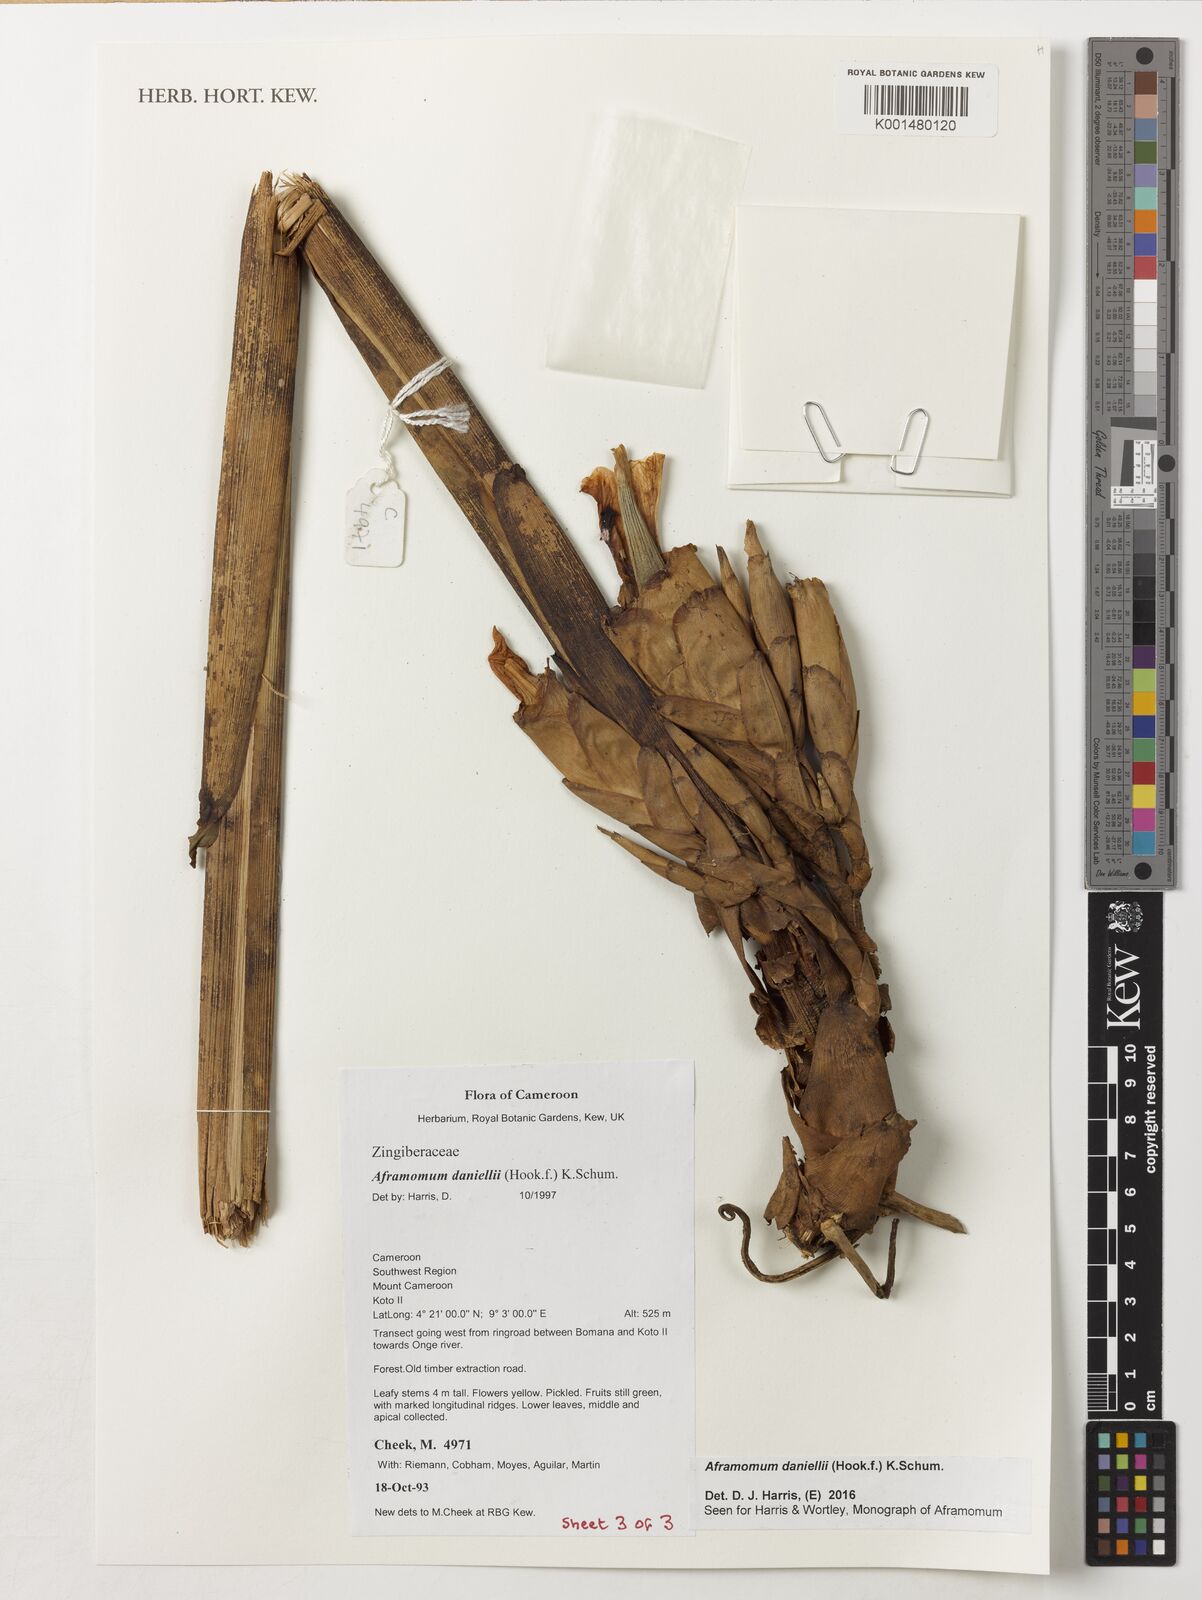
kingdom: Plantae
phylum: Tracheophyta
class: Liliopsida
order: Zingiberales
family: Zingiberaceae
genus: Aframomum
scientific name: Aframomum daniellii
